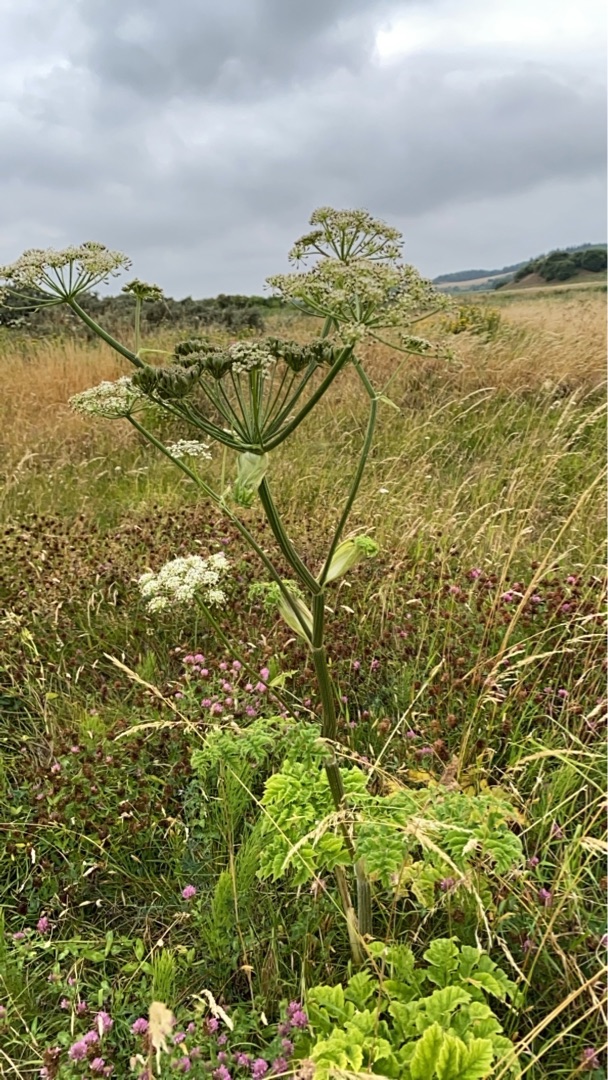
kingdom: Plantae
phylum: Tracheophyta
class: Magnoliopsida
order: Apiales
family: Apiaceae
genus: Heracleum
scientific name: Heracleum
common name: Bjørnekloslægten
